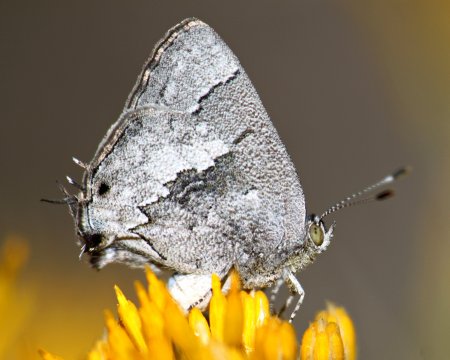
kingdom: Animalia
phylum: Arthropoda
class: Insecta
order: Lepidoptera
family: Lycaenidae
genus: Ministrymon
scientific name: Ministrymon leda
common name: Leda Ministreak
